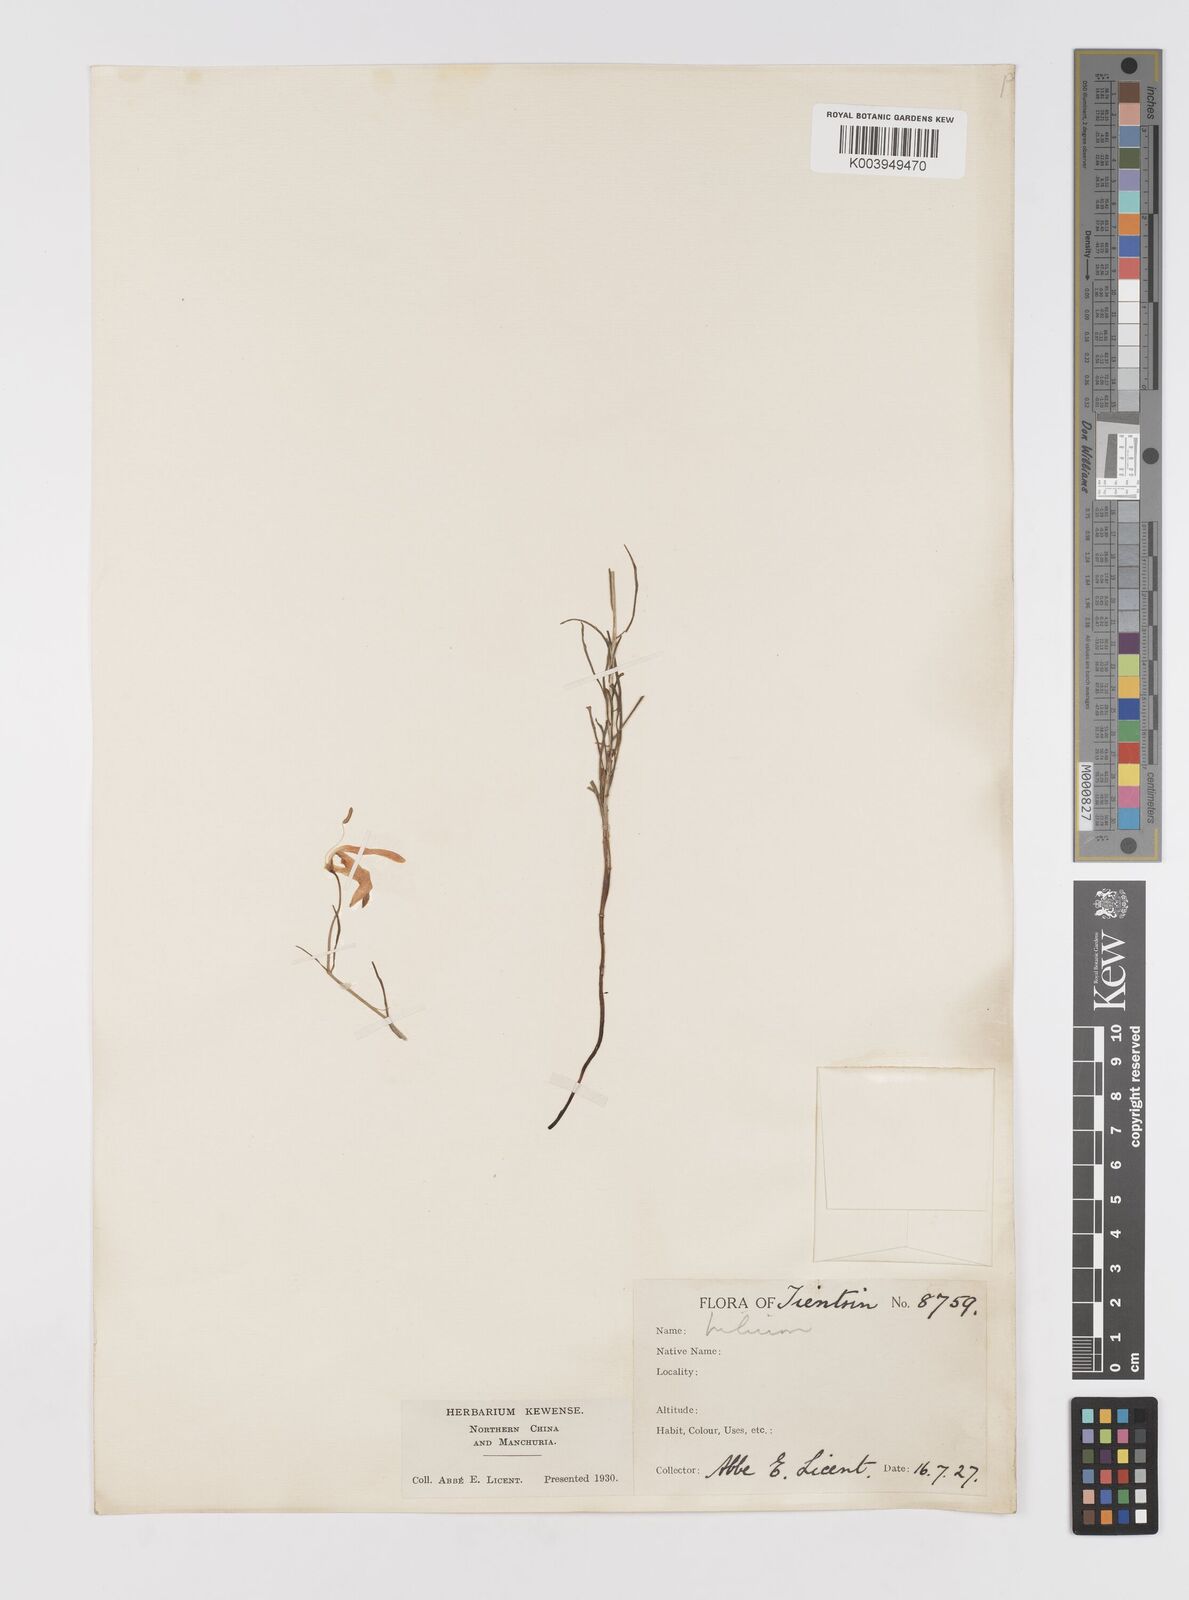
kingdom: Plantae
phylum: Tracheophyta
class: Liliopsida
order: Liliales
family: Liliaceae
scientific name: Liliaceae
